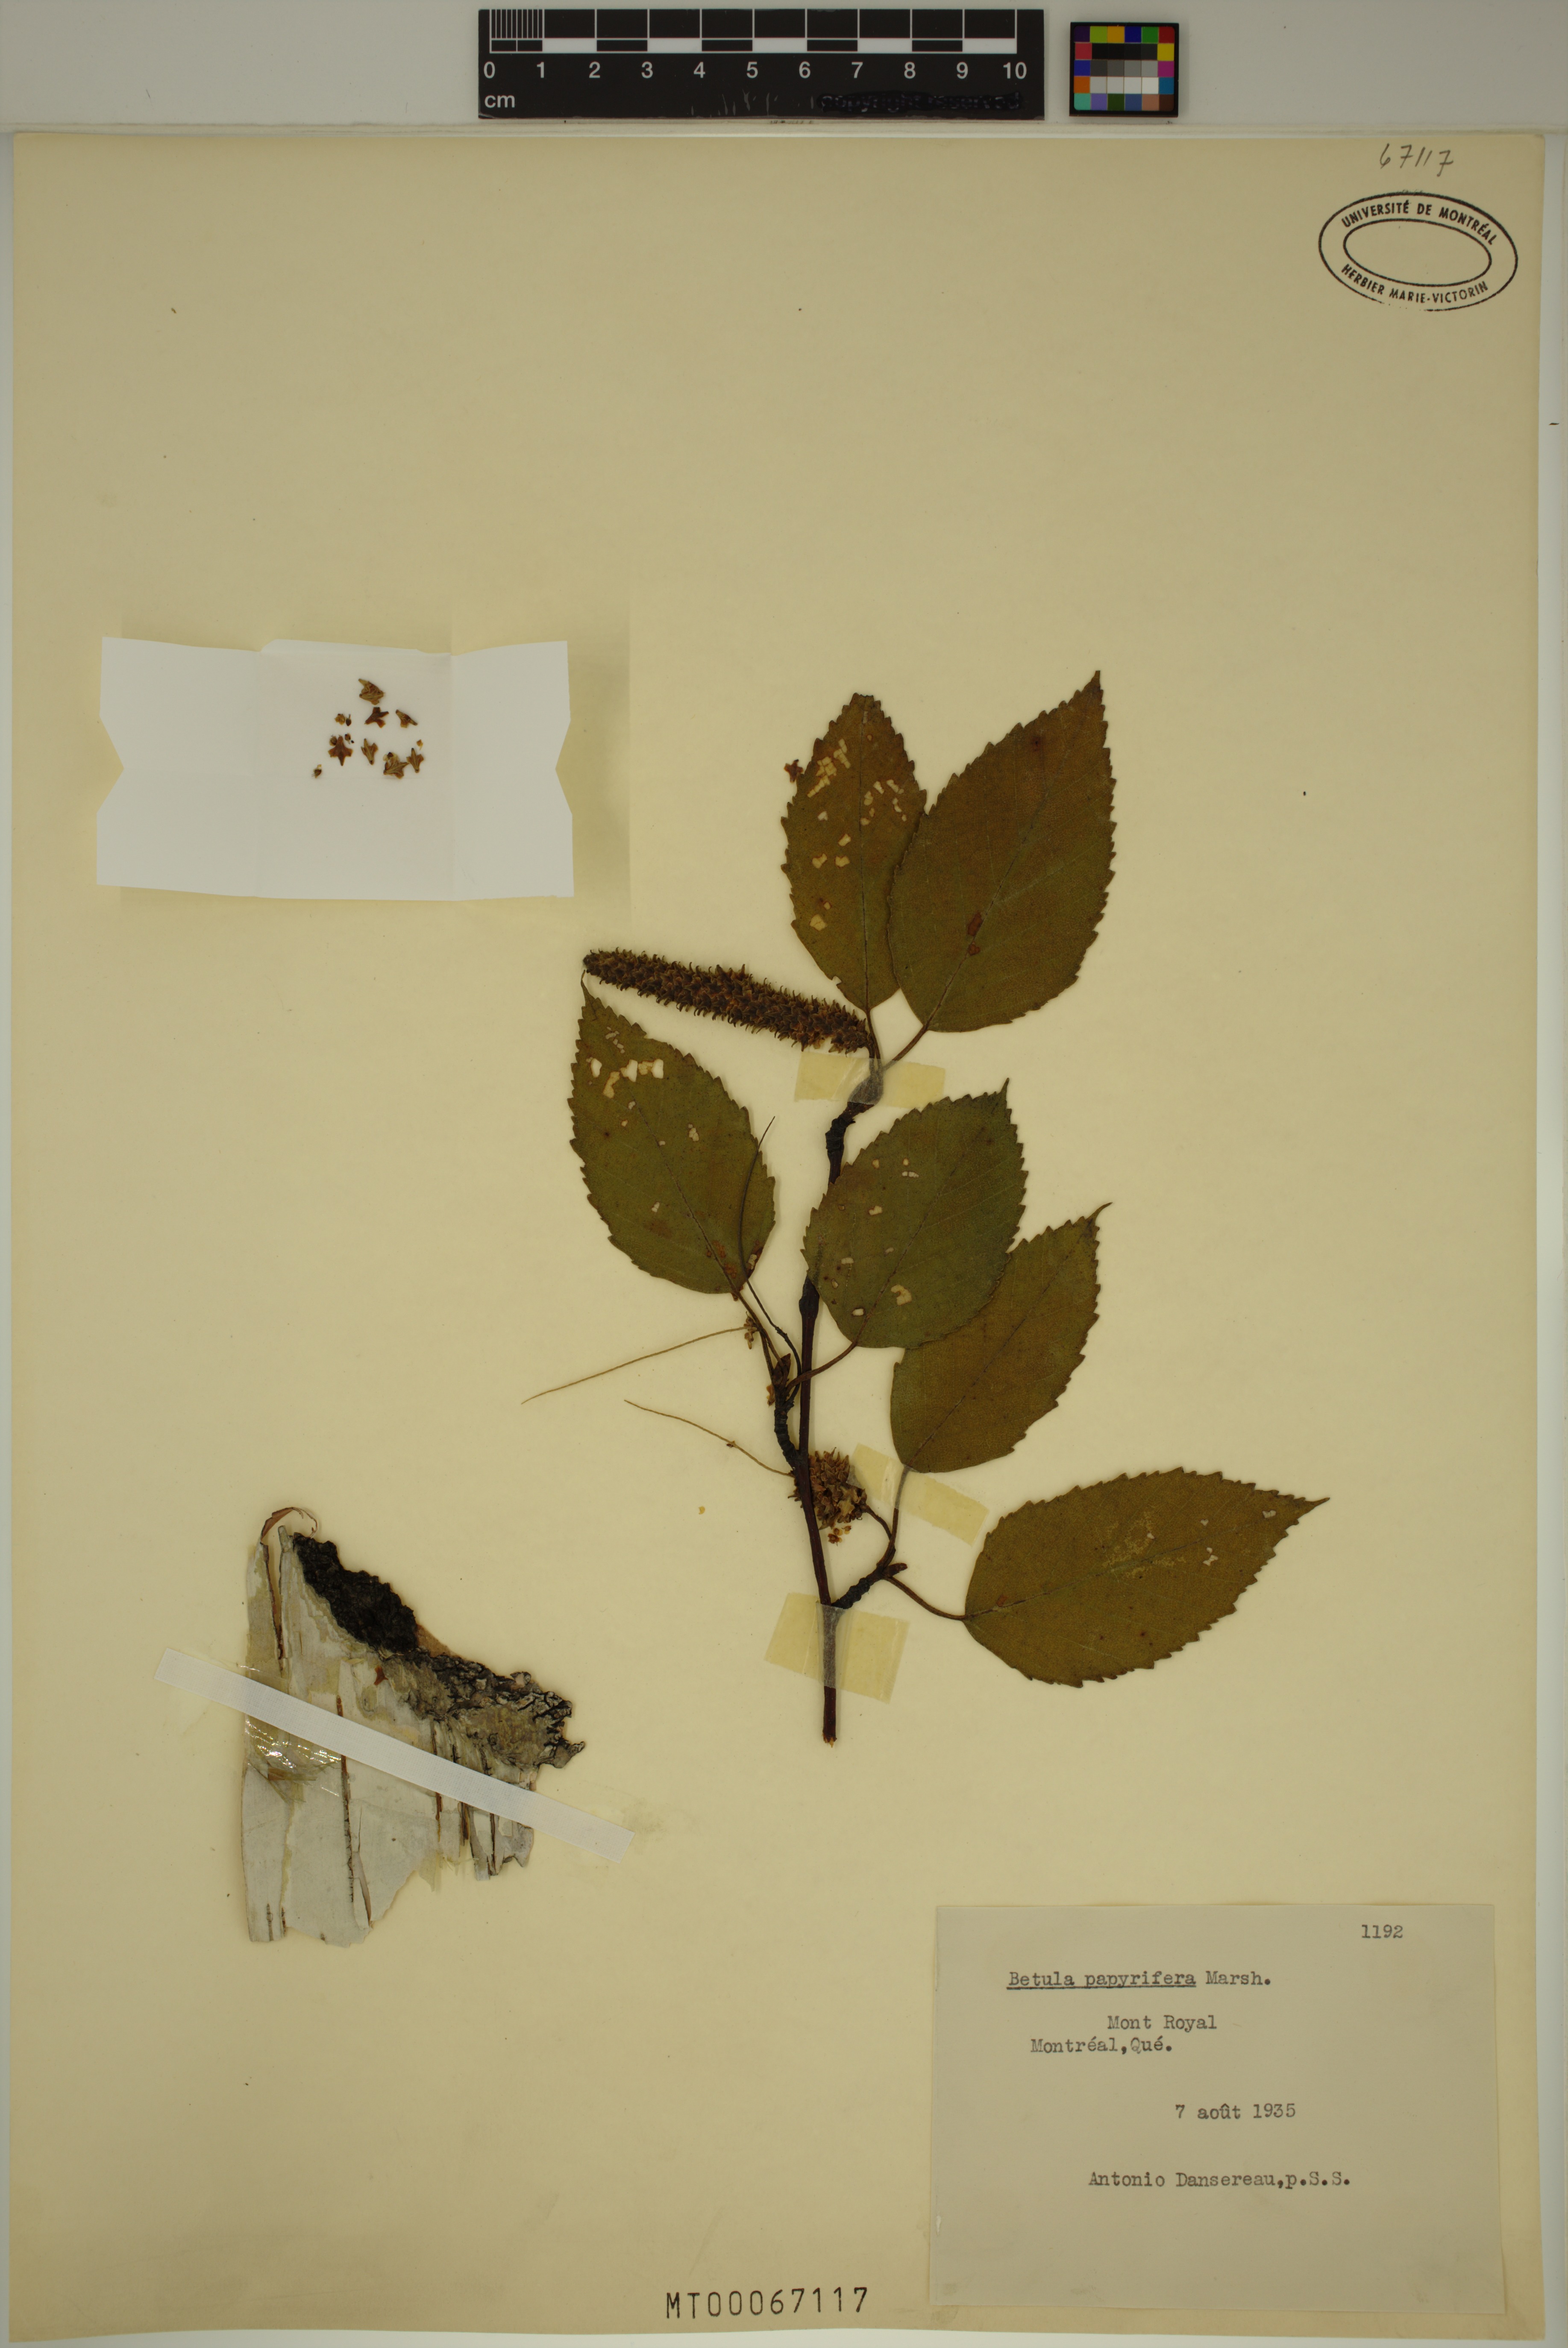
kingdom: Plantae
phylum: Tracheophyta
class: Magnoliopsida
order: Fagales
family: Betulaceae
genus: Betula
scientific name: Betula papyrifera
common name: Paper birch
